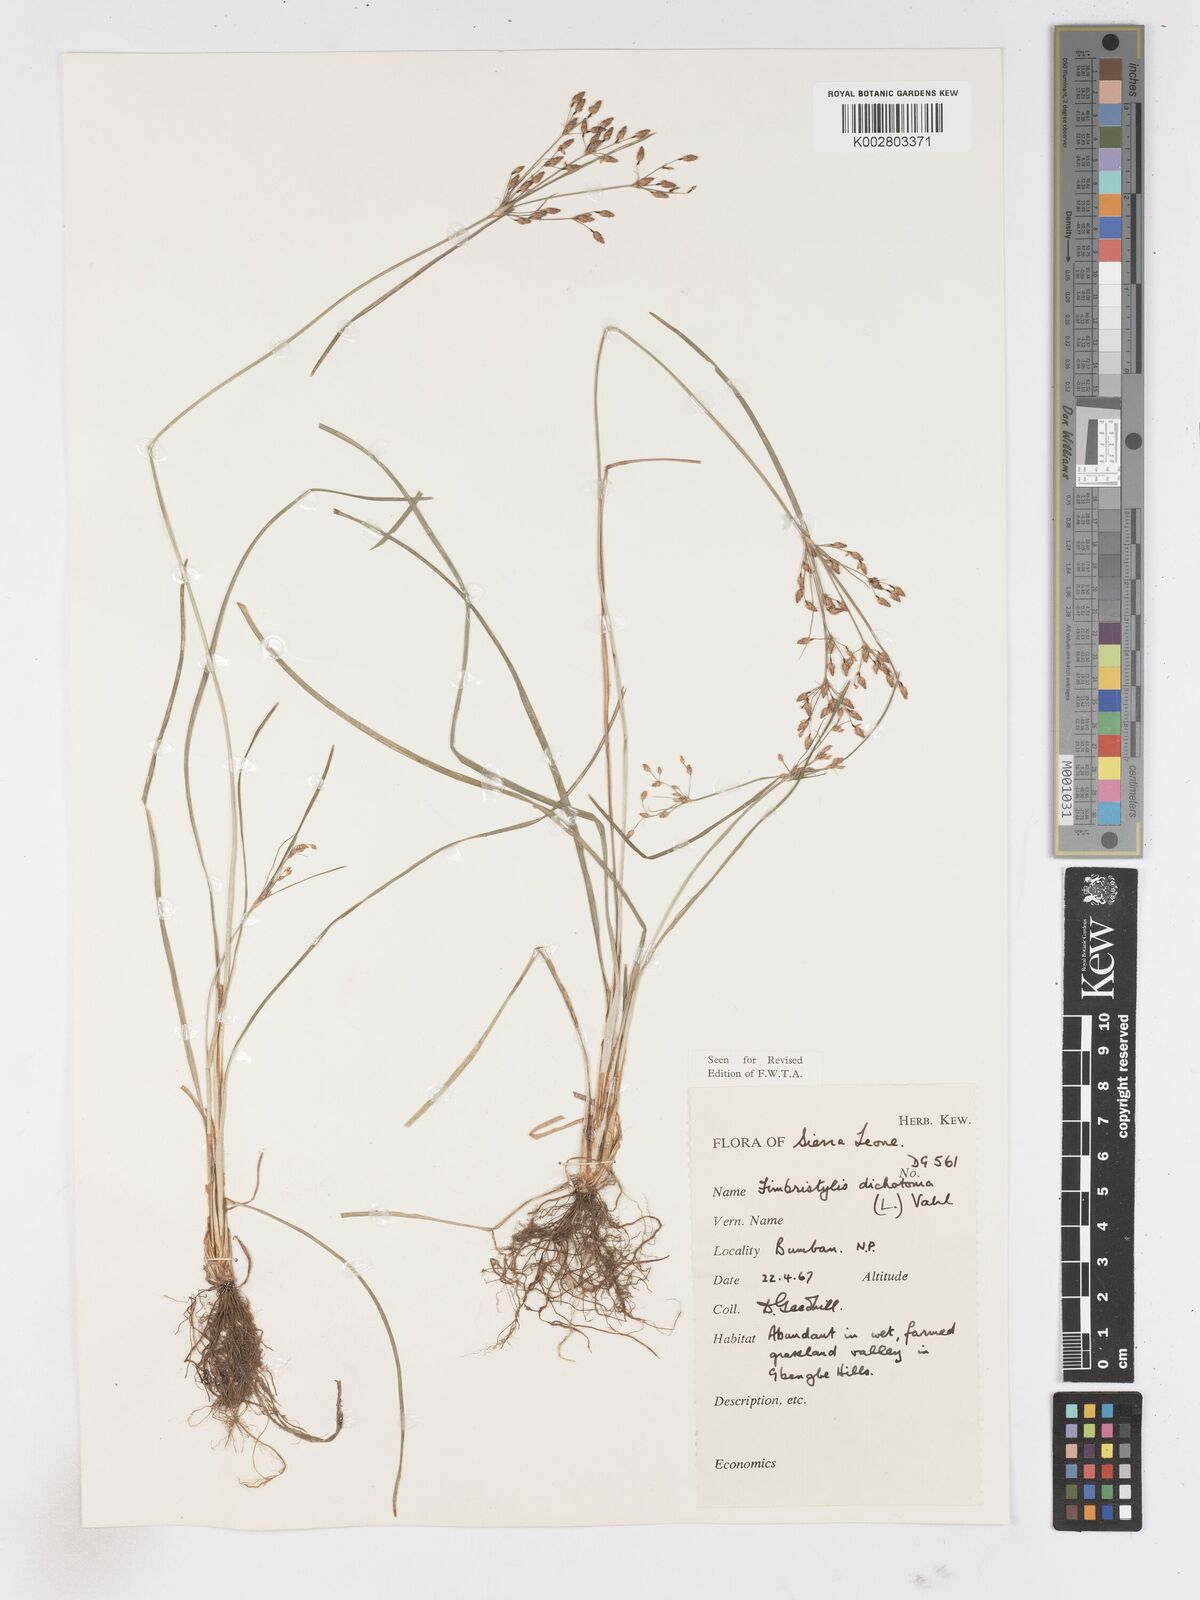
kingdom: Plantae
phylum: Tracheophyta
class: Liliopsida
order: Poales
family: Cyperaceae
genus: Fimbristylis
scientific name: Fimbristylis dichotoma
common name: Forked fimbry
